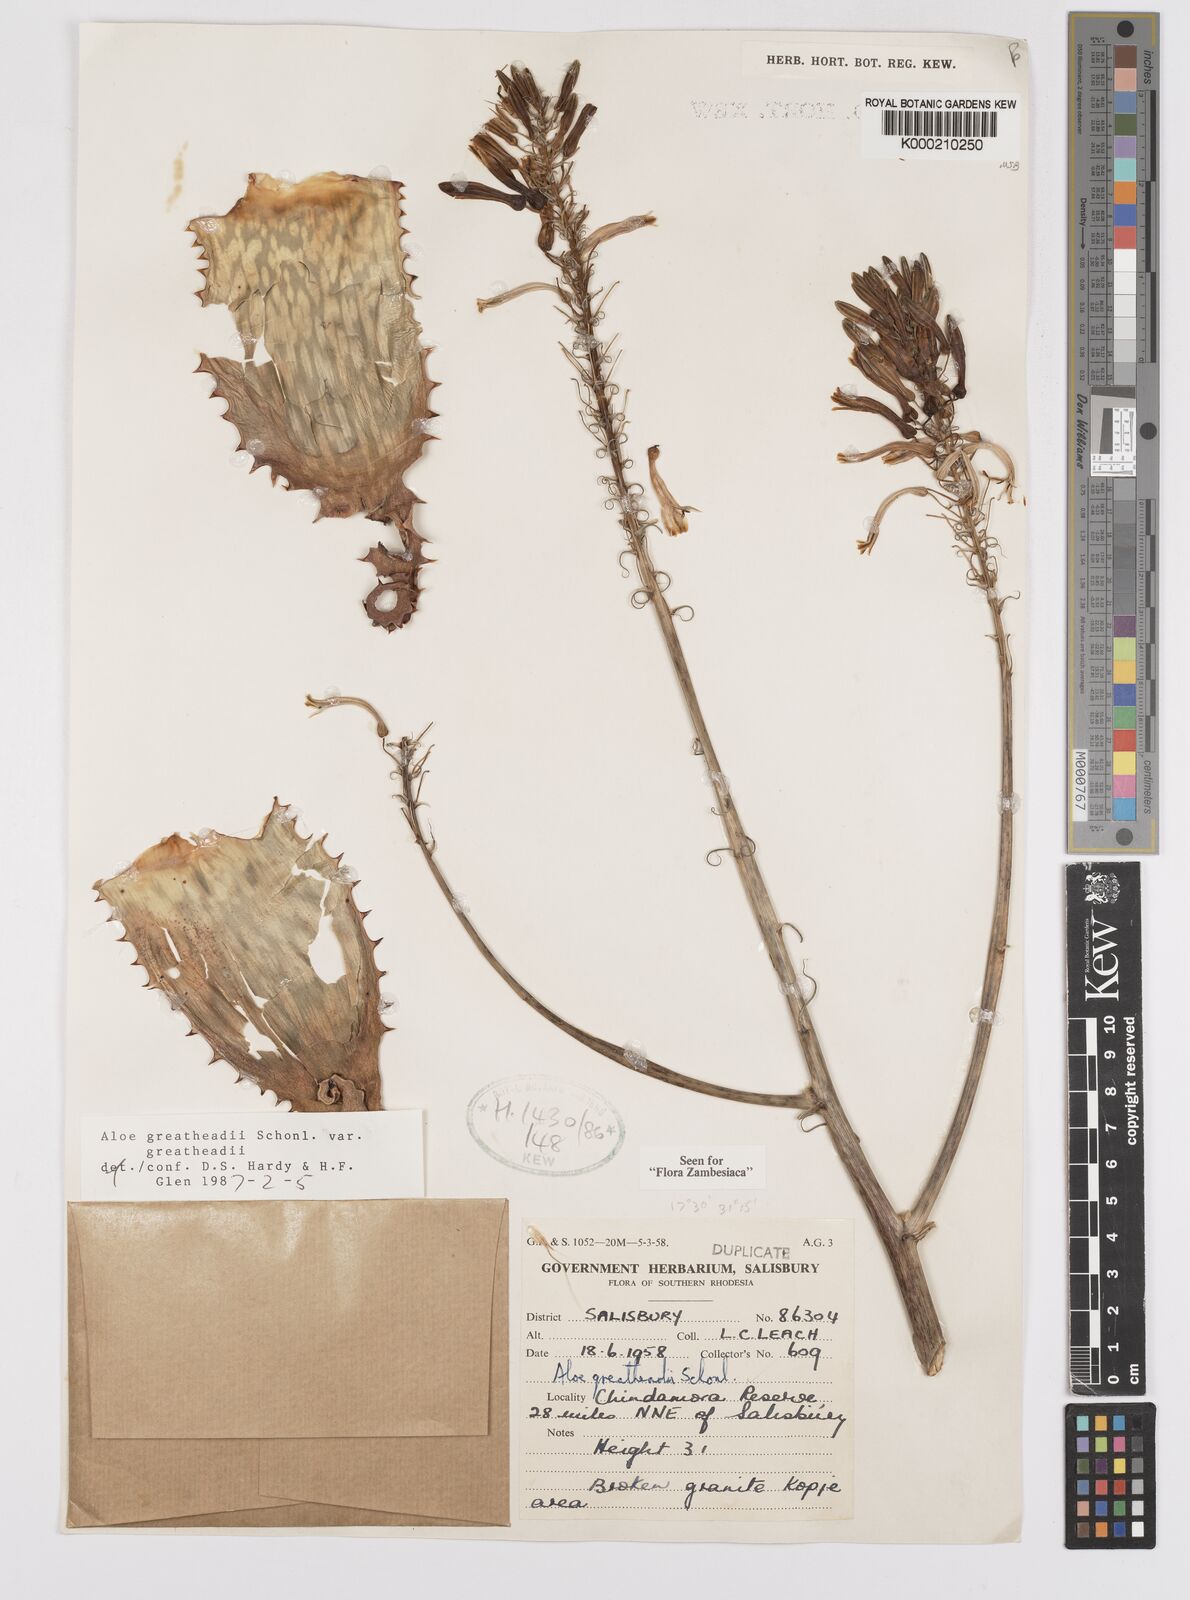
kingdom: Plantae
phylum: Tracheophyta
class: Liliopsida
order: Asparagales
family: Asphodelaceae
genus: Aloe
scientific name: Aloe greatheadii
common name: Greathead's aloe
